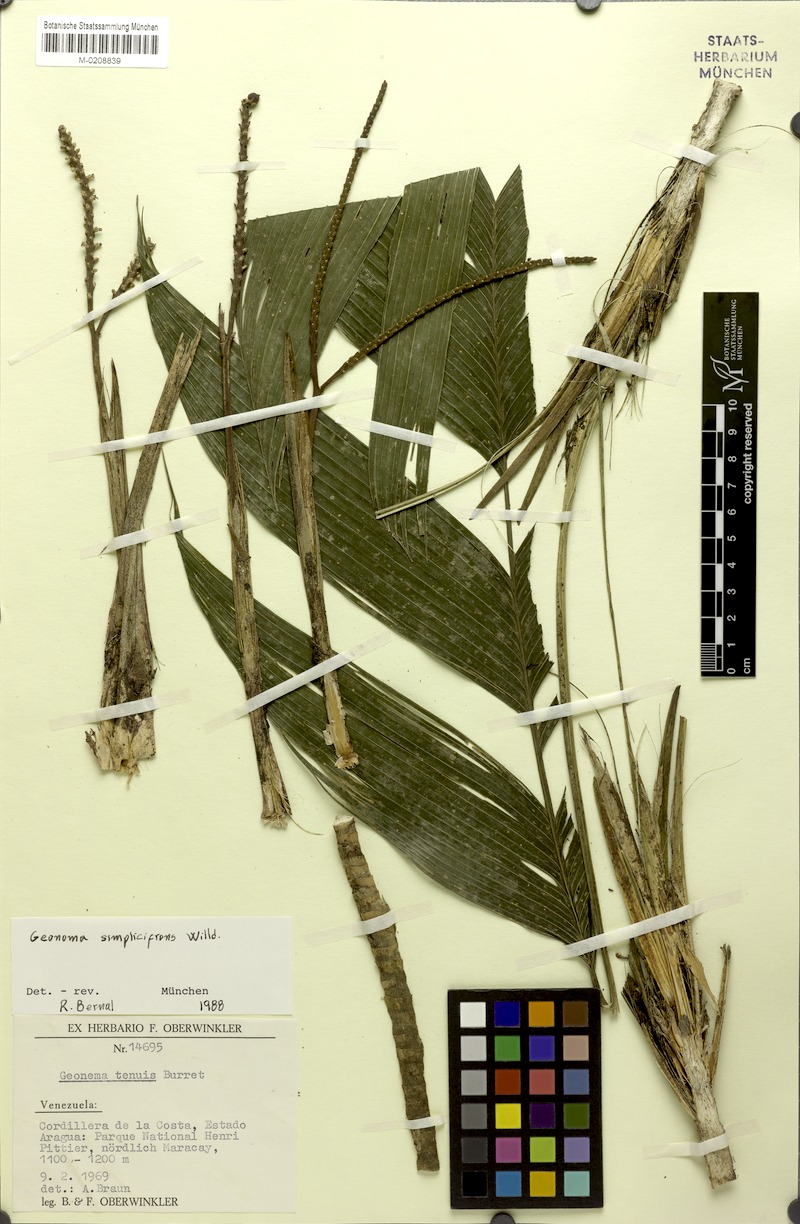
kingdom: Plantae
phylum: Tracheophyta
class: Liliopsida
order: Arecales
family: Arecaceae
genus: Geonoma
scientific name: Geonoma simplicifrons
